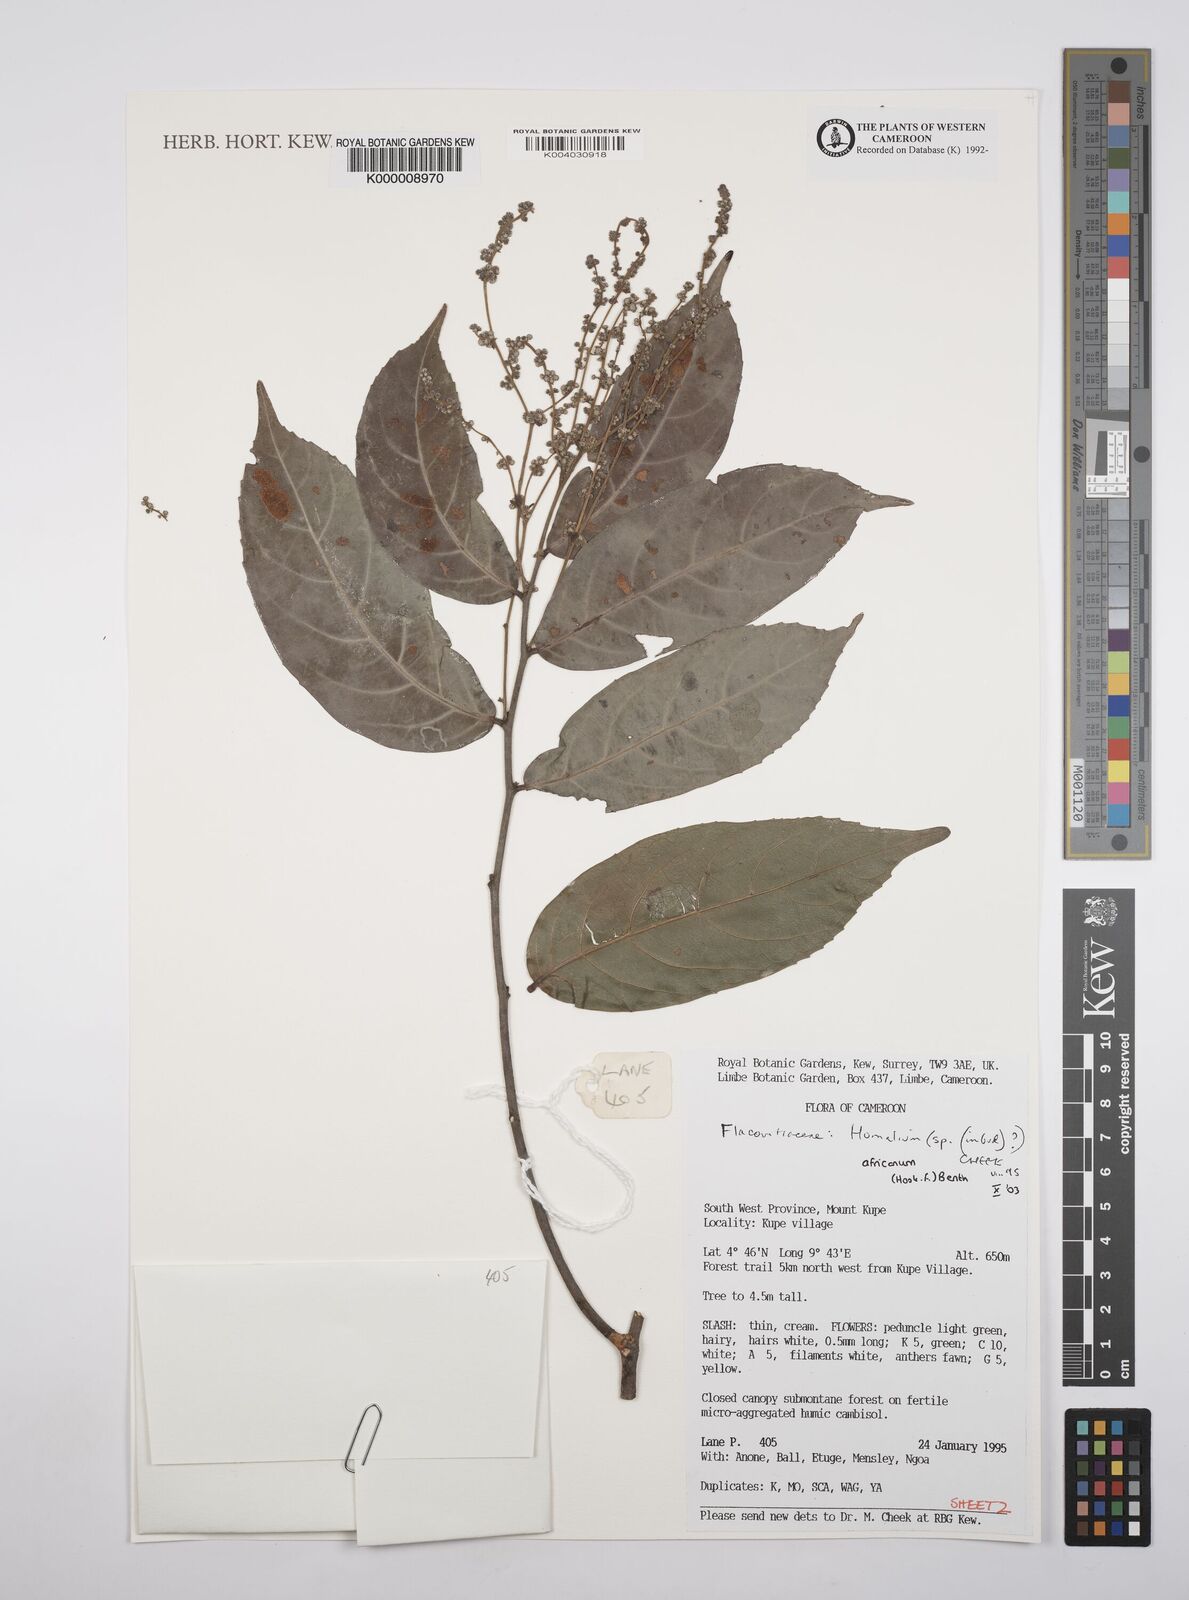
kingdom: Plantae
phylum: Tracheophyta
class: Magnoliopsida
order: Malpighiales
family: Salicaceae
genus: Homalium
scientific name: Homalium
